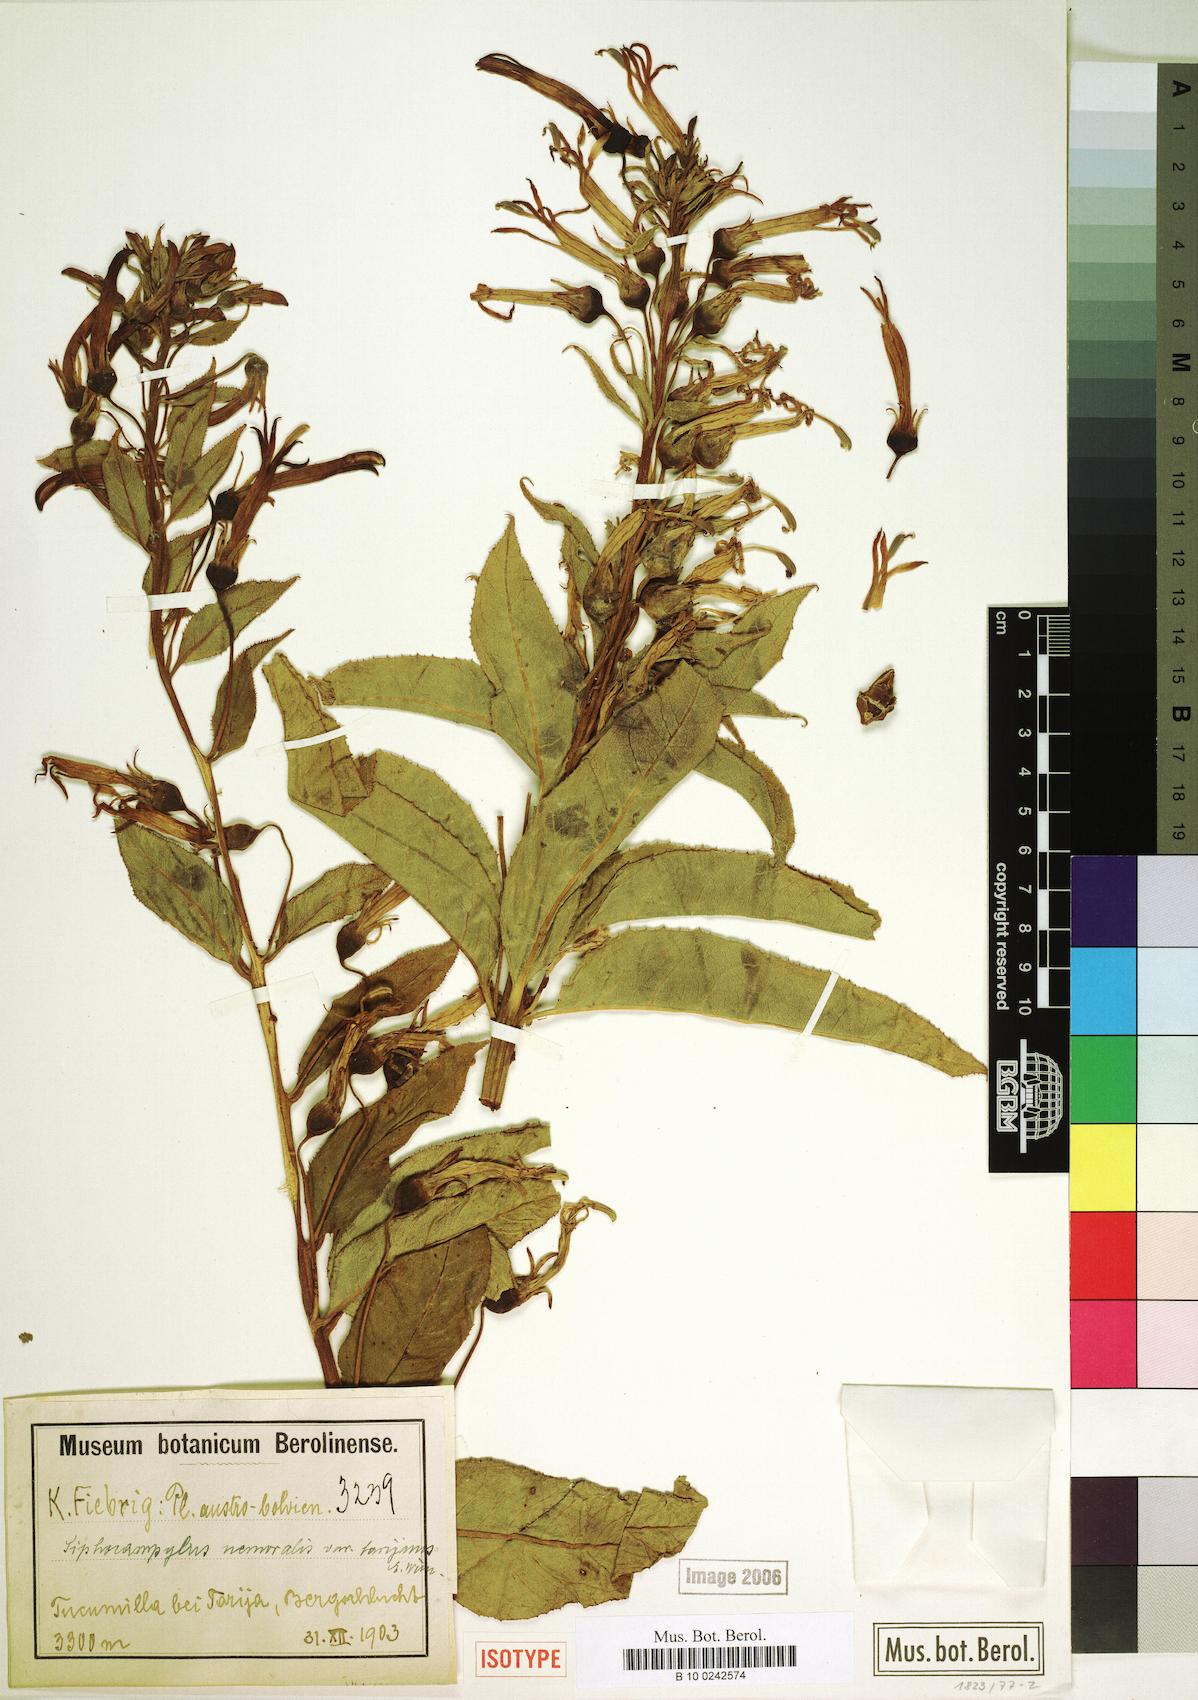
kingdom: Plantae
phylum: Tracheophyta
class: Magnoliopsida
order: Asterales
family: Campanulaceae
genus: Siphocampylus
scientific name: Siphocampylus nemoralis
